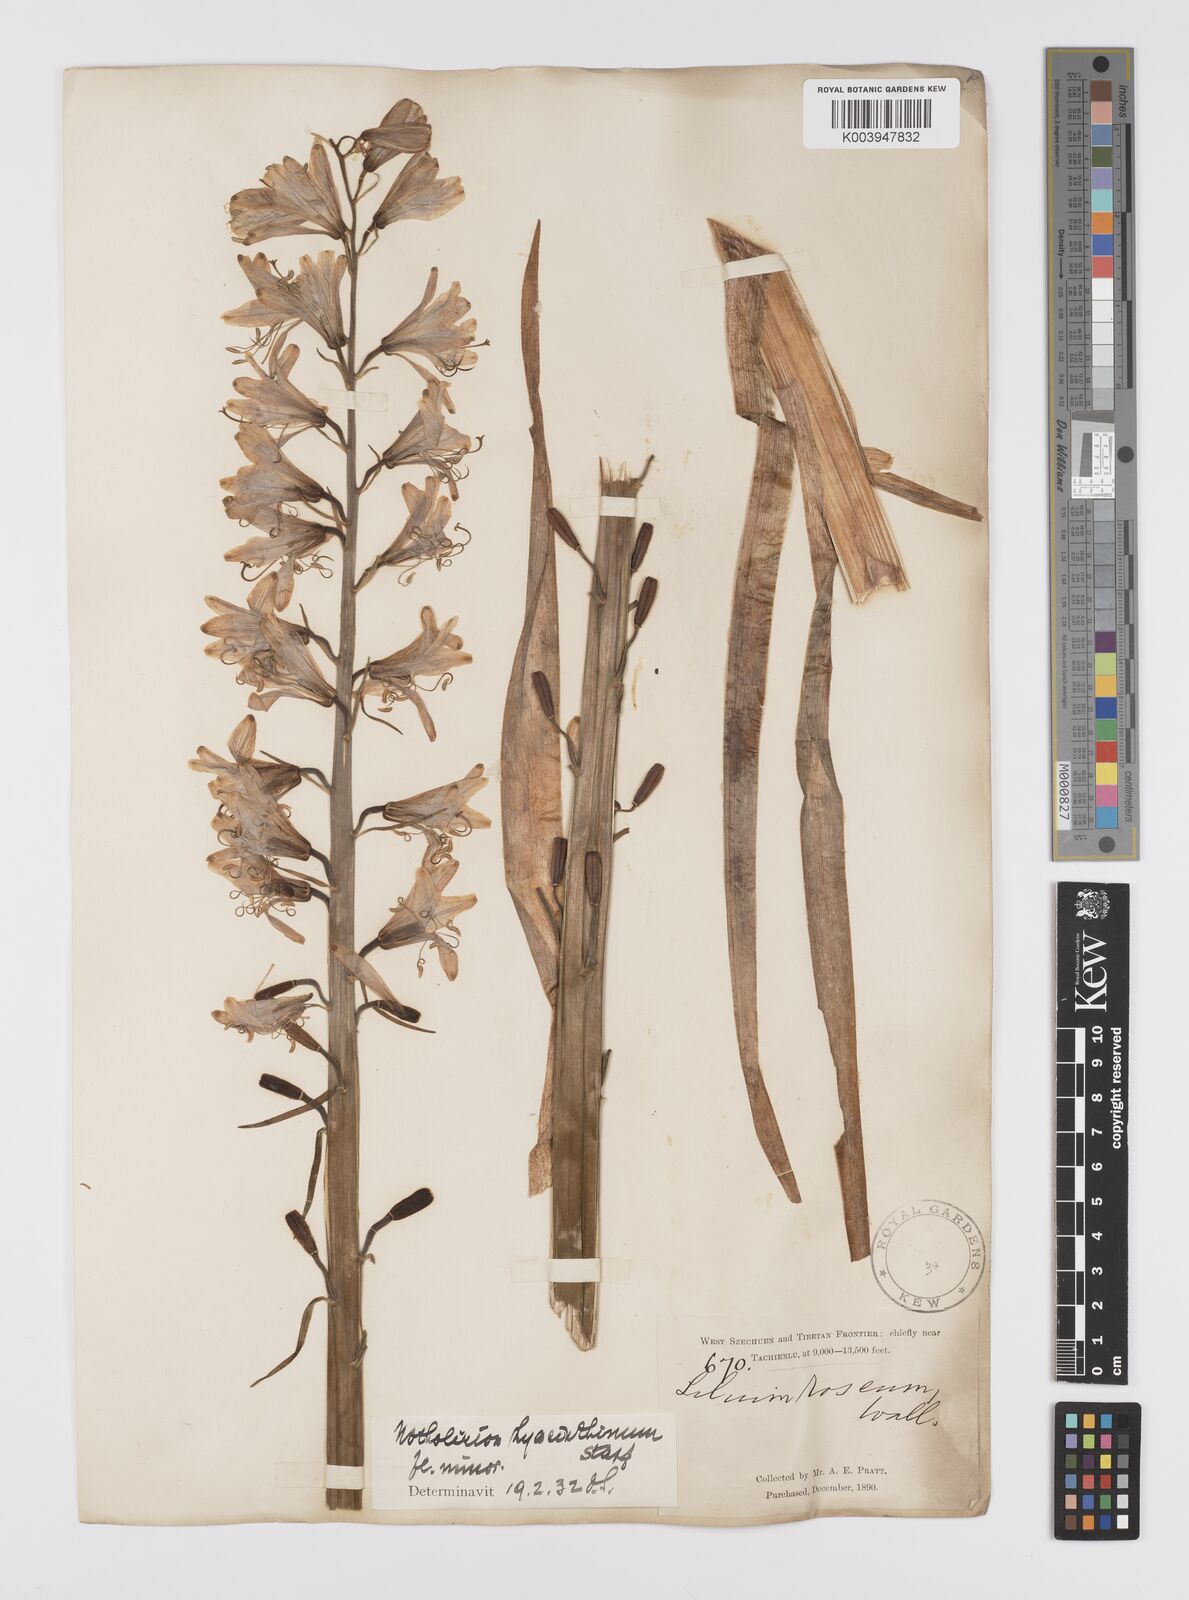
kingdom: Plantae
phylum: Tracheophyta
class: Liliopsida
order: Liliales
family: Liliaceae
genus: Notholirion
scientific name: Notholirion bulbuliferum
